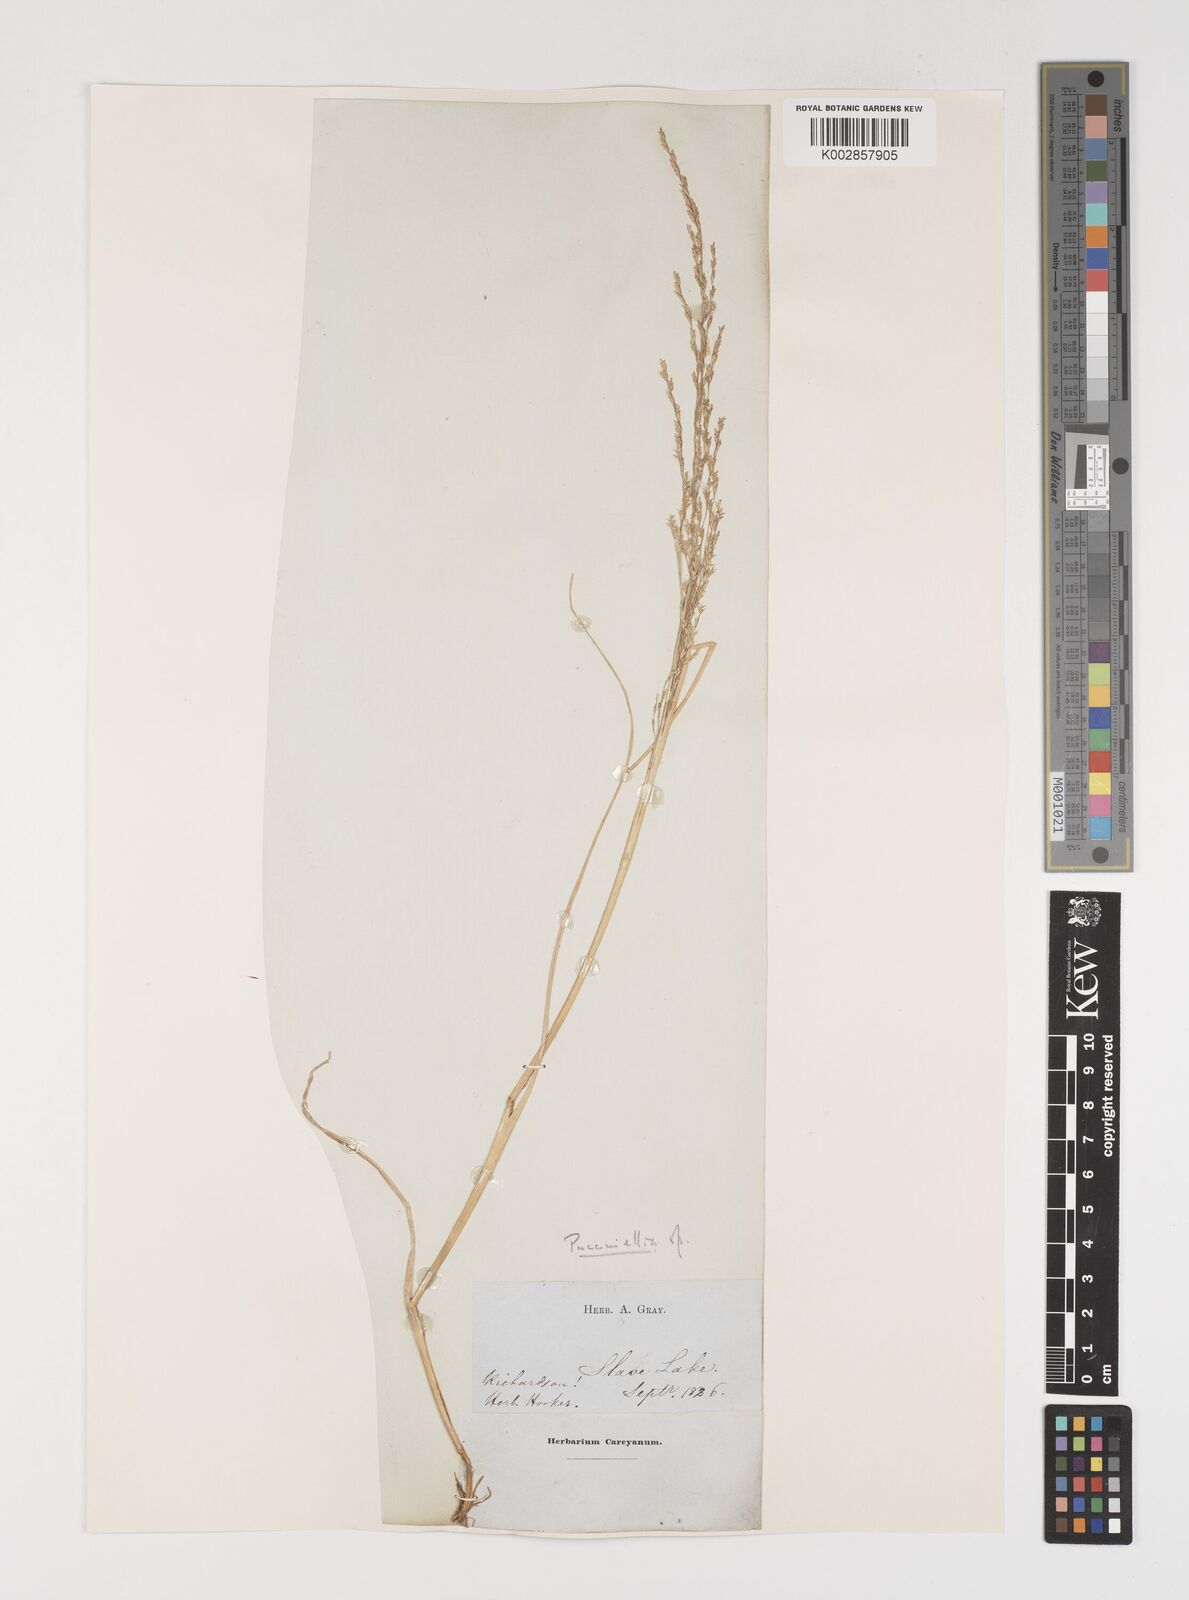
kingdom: Plantae
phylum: Tracheophyta
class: Liliopsida
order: Poales
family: Poaceae
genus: Puccinellia
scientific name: Puccinellia
